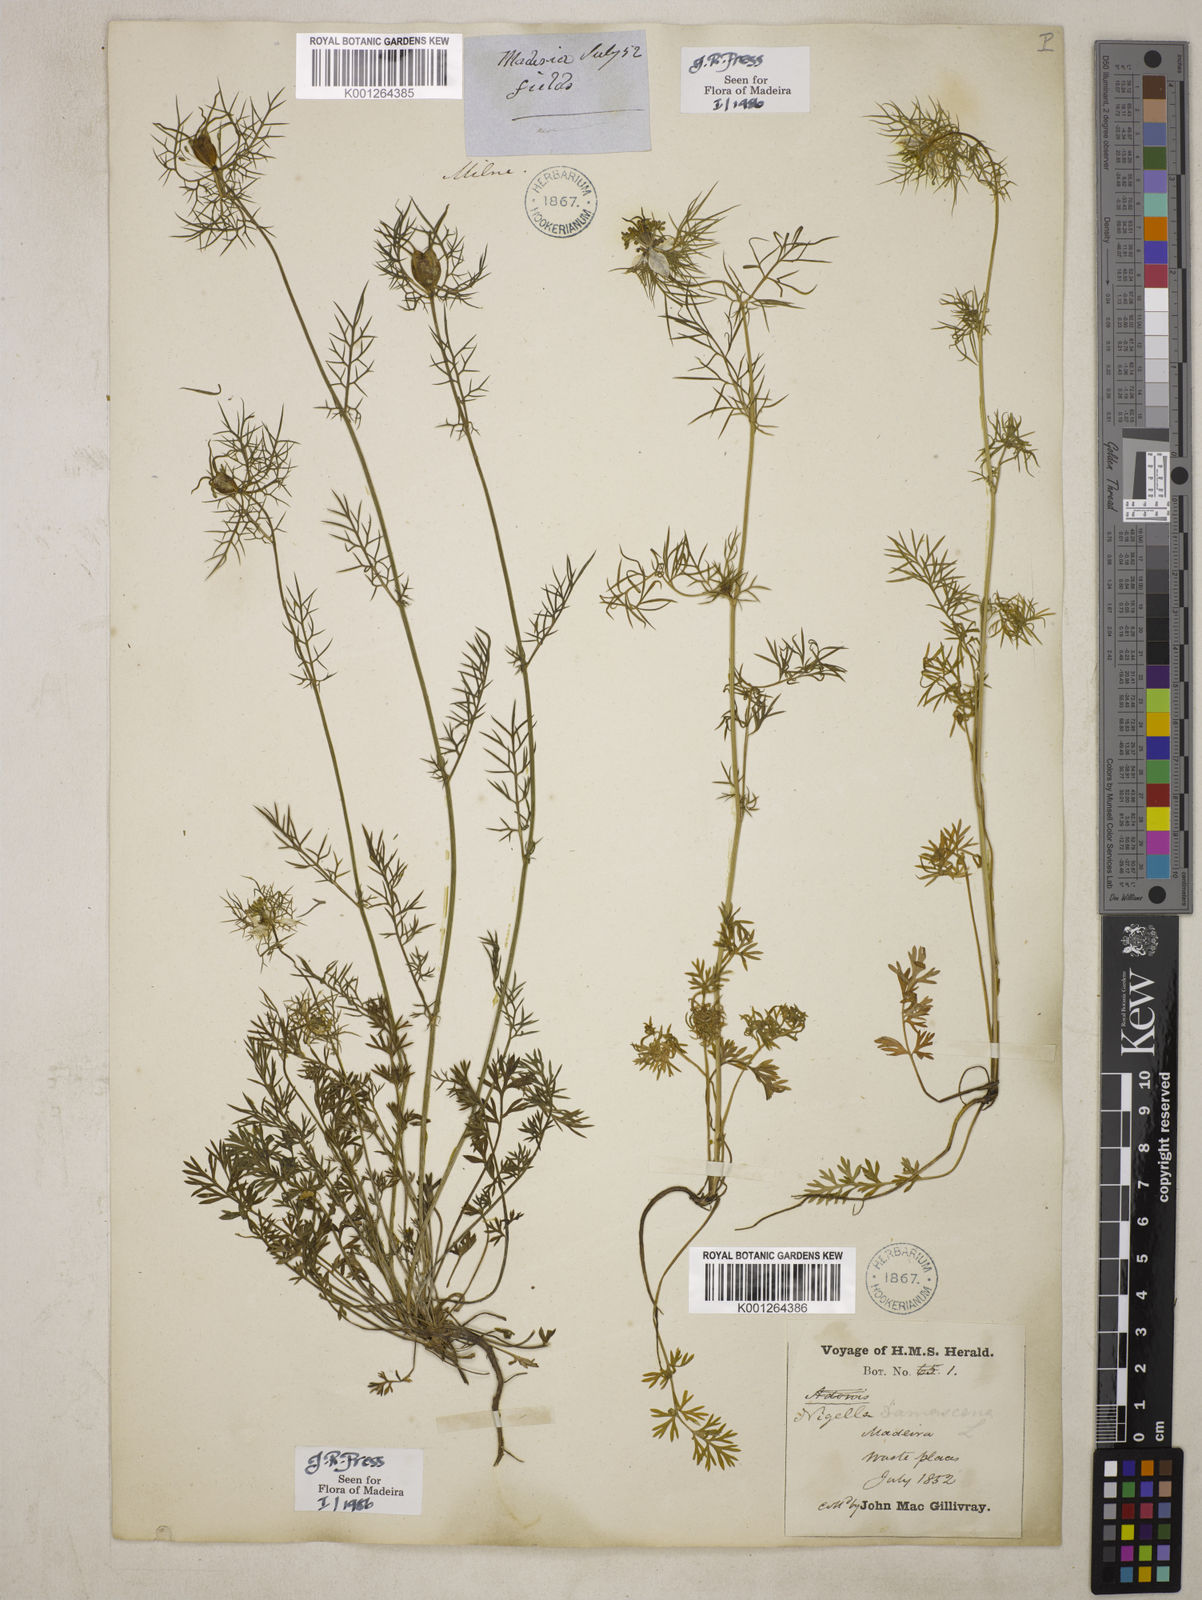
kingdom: Plantae
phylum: Tracheophyta
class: Magnoliopsida
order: Ranunculales
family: Ranunculaceae
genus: Nigella
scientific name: Nigella damascena
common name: Love-in-a-mist
